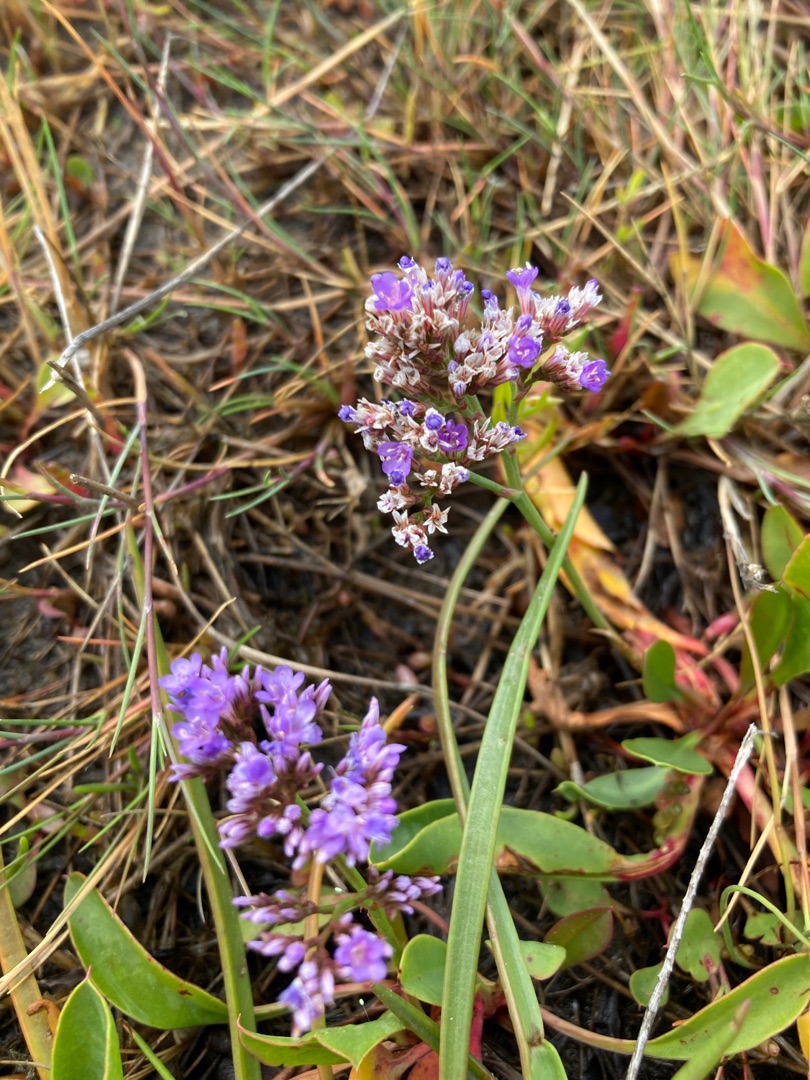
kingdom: Plantae
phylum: Tracheophyta
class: Magnoliopsida
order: Caryophyllales
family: Plumbaginaceae
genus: Limonium
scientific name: Limonium vulgare
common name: Tætblomstret hindebæger
